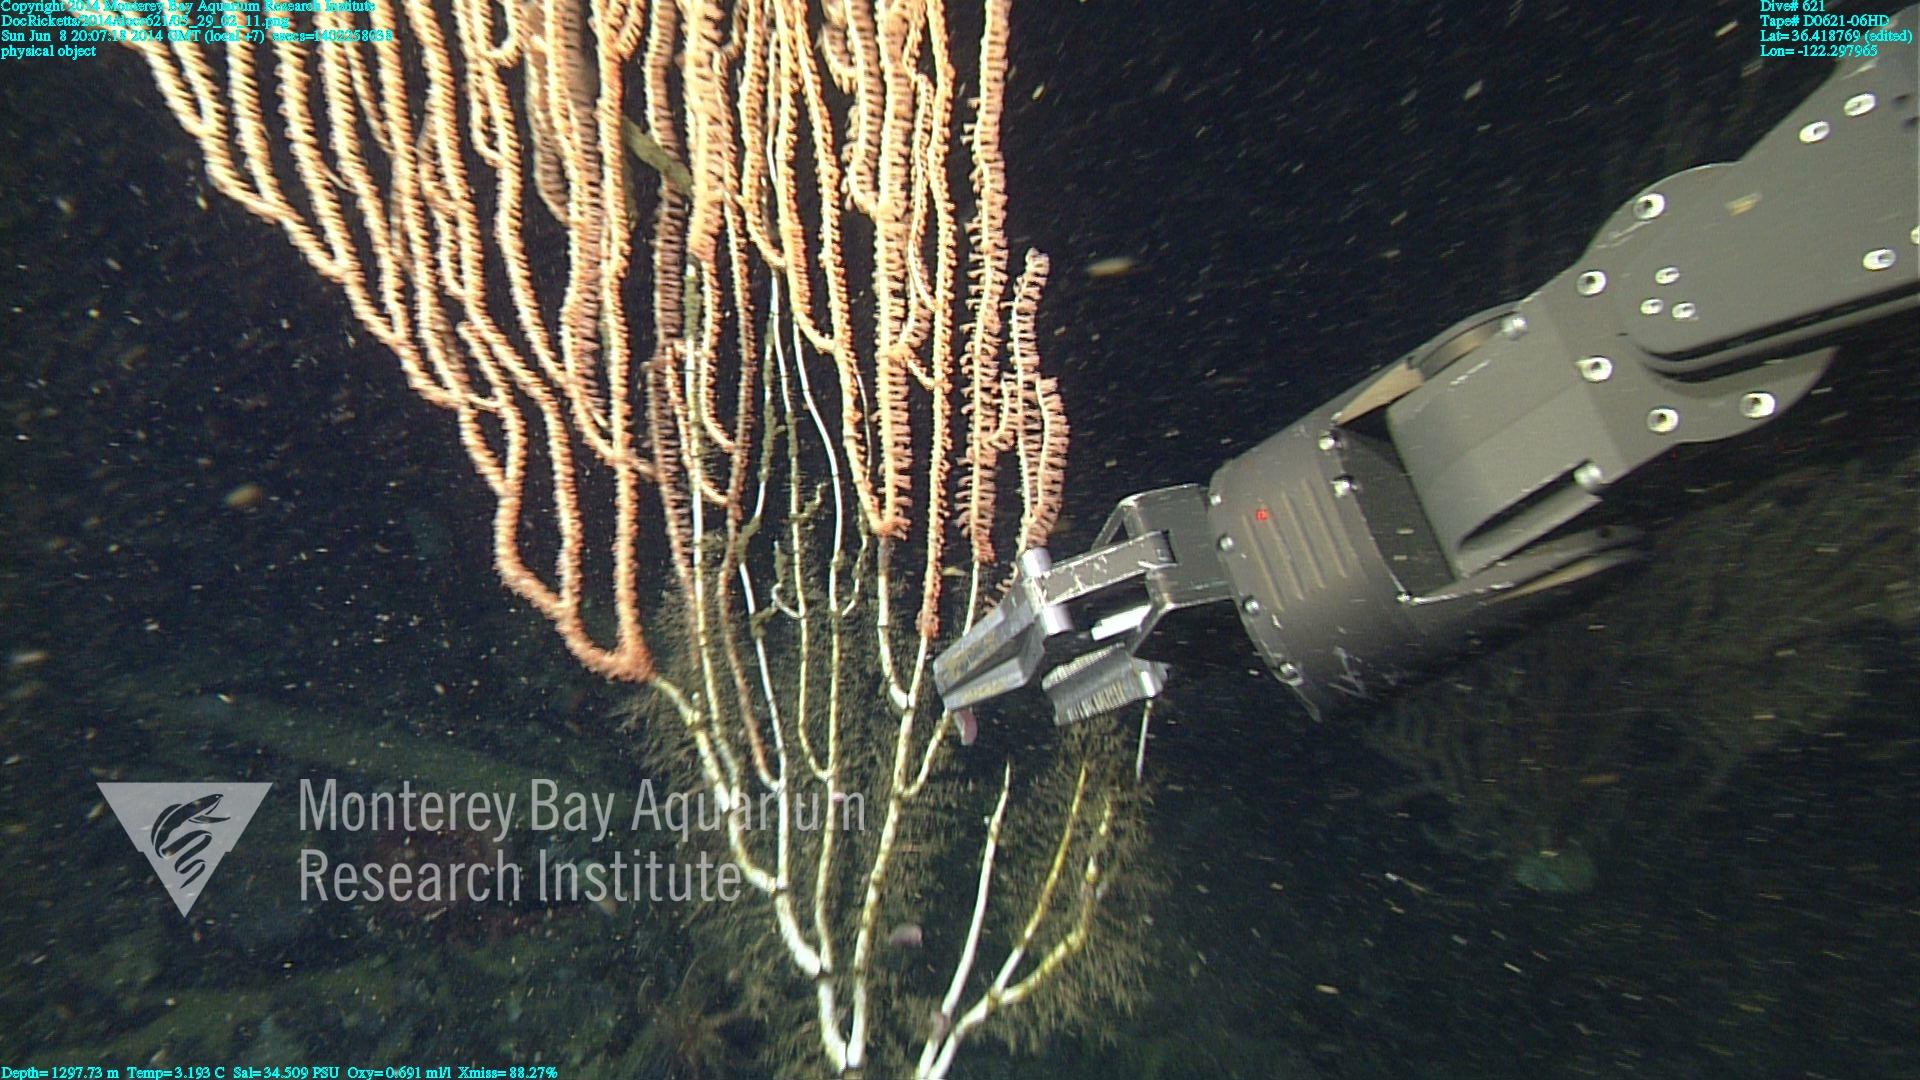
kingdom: Animalia
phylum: Cnidaria
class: Anthozoa
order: Scleralcyonacea
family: Keratoisididae
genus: Isidella
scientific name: Isidella
